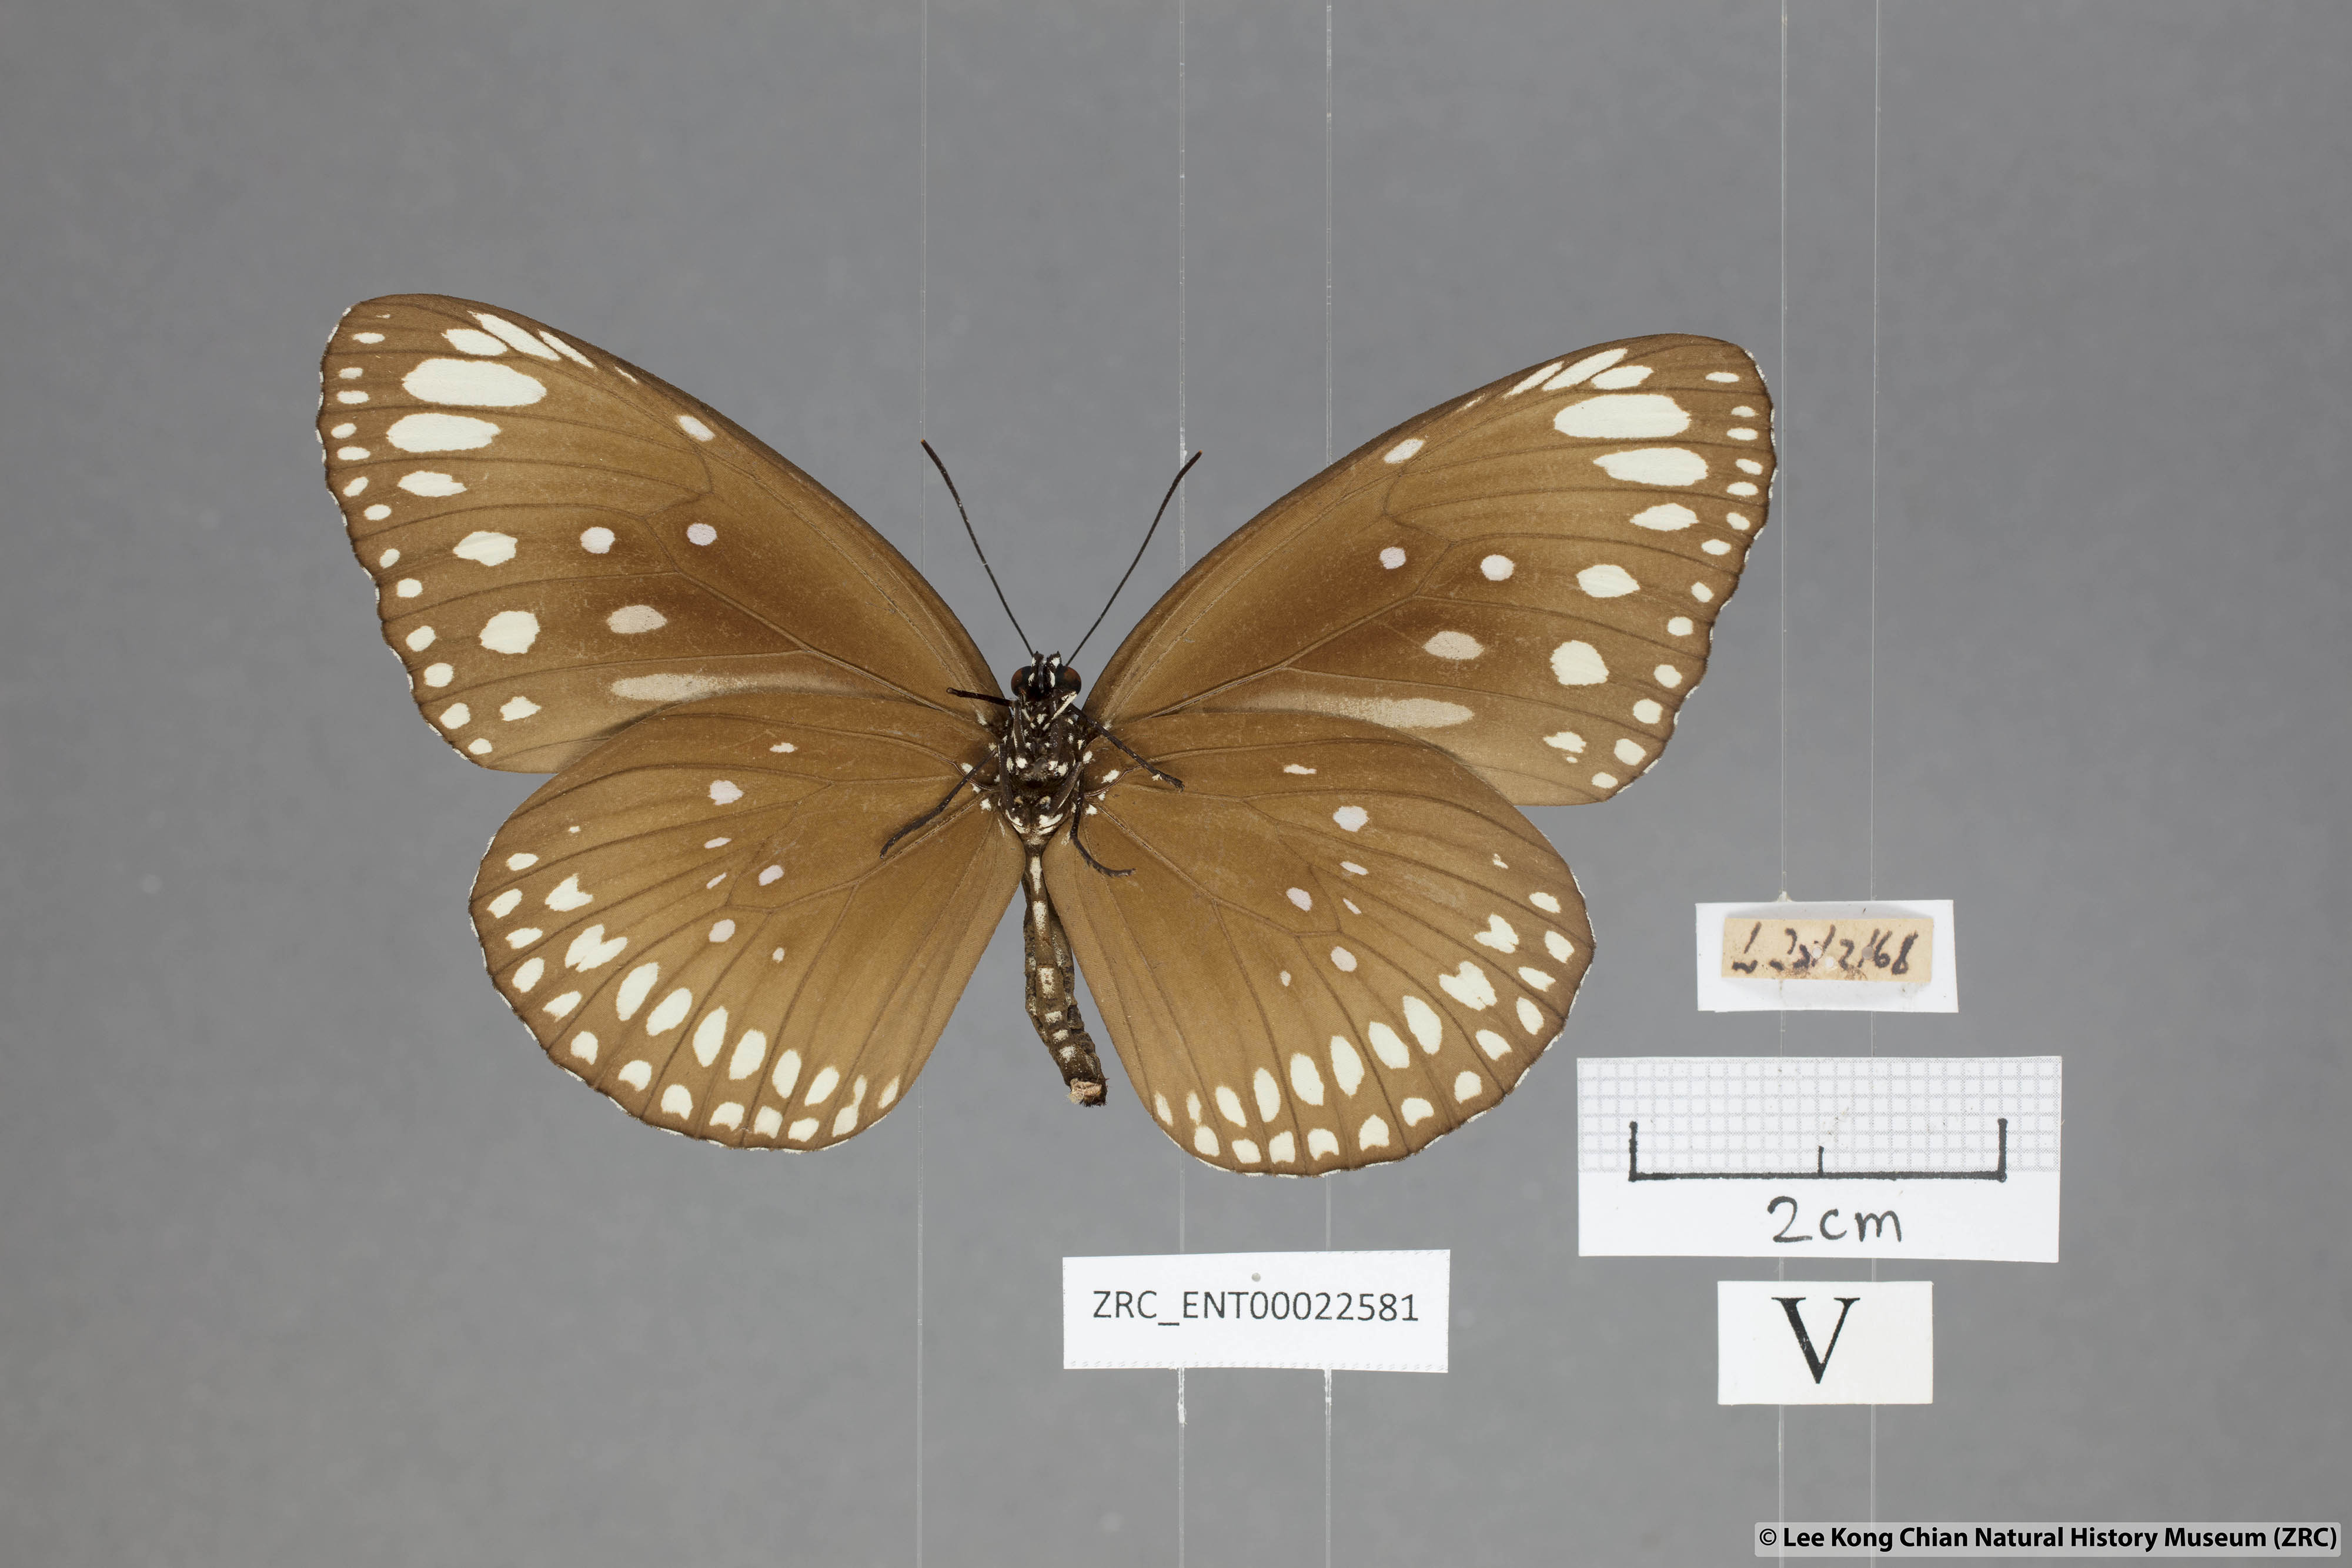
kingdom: Animalia
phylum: Arthropoda
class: Insecta
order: Lepidoptera
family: Nymphalidae
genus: Euploea
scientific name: Euploea core
